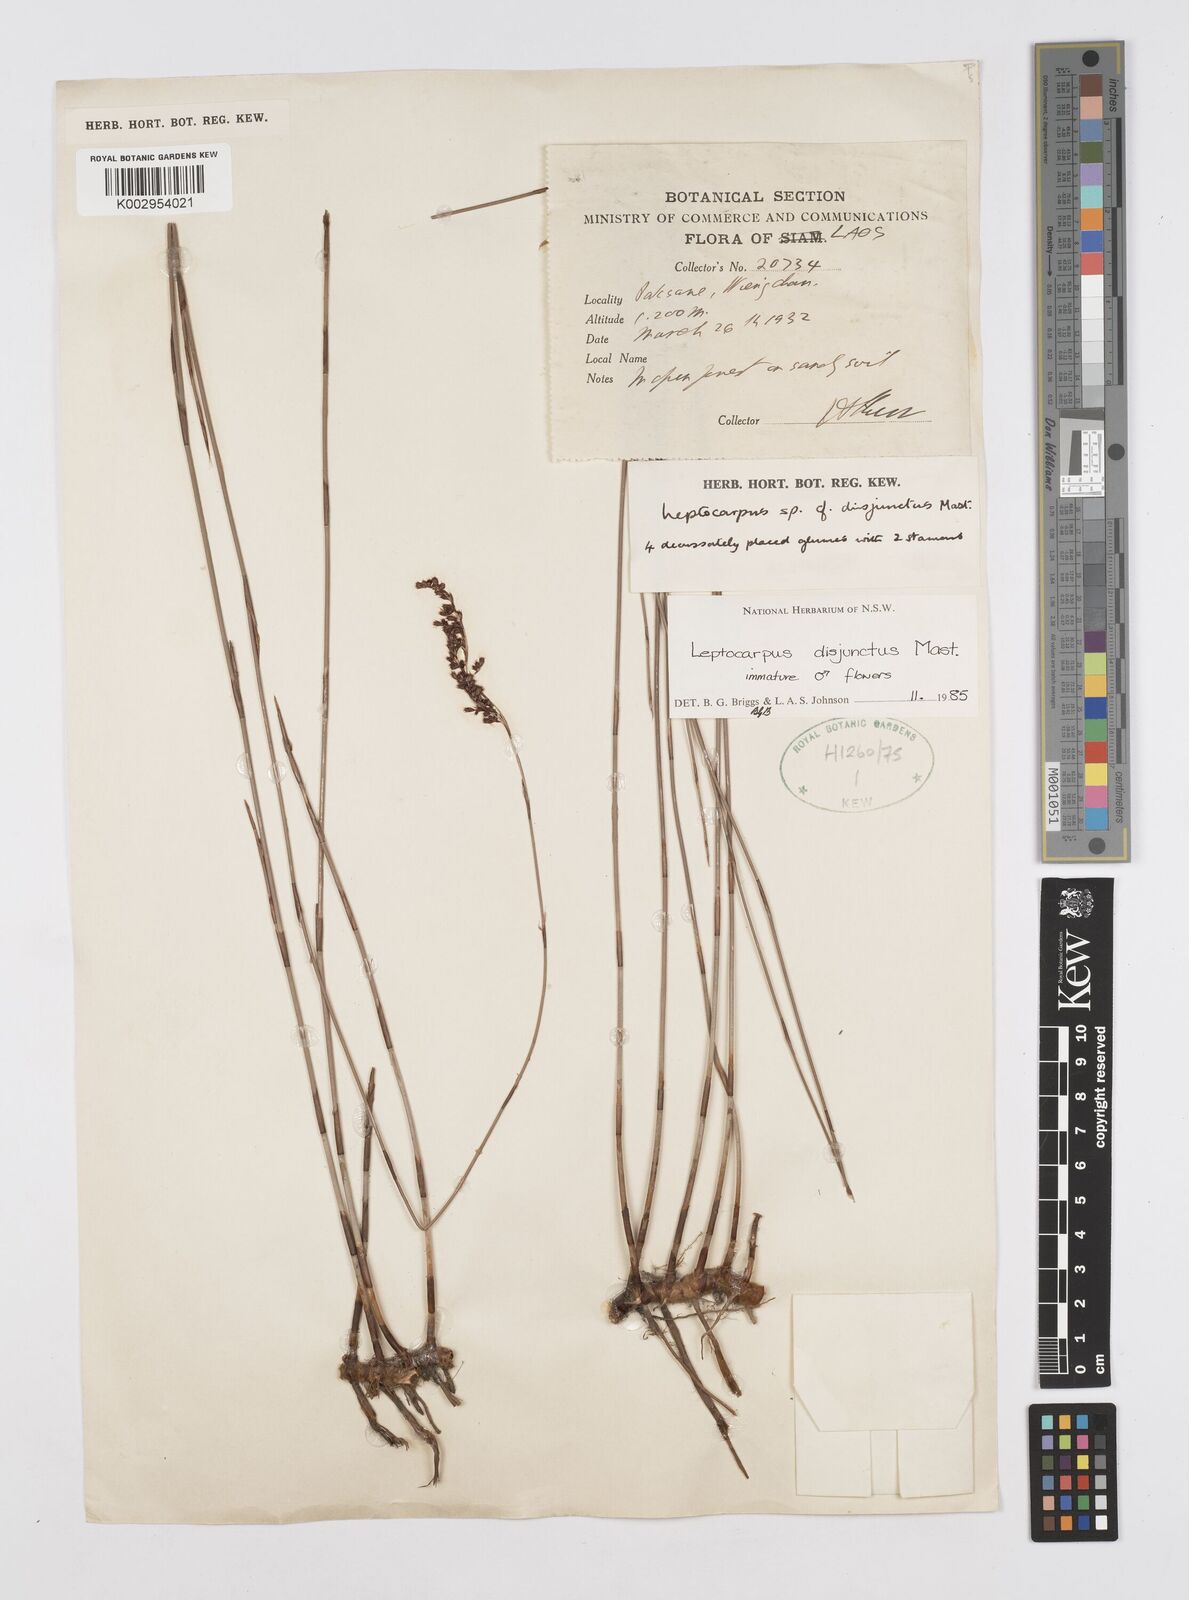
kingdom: Plantae
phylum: Tracheophyta
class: Liliopsida
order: Poales
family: Restionaceae
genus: Dapsilanthus
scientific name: Dapsilanthus disjunctus
